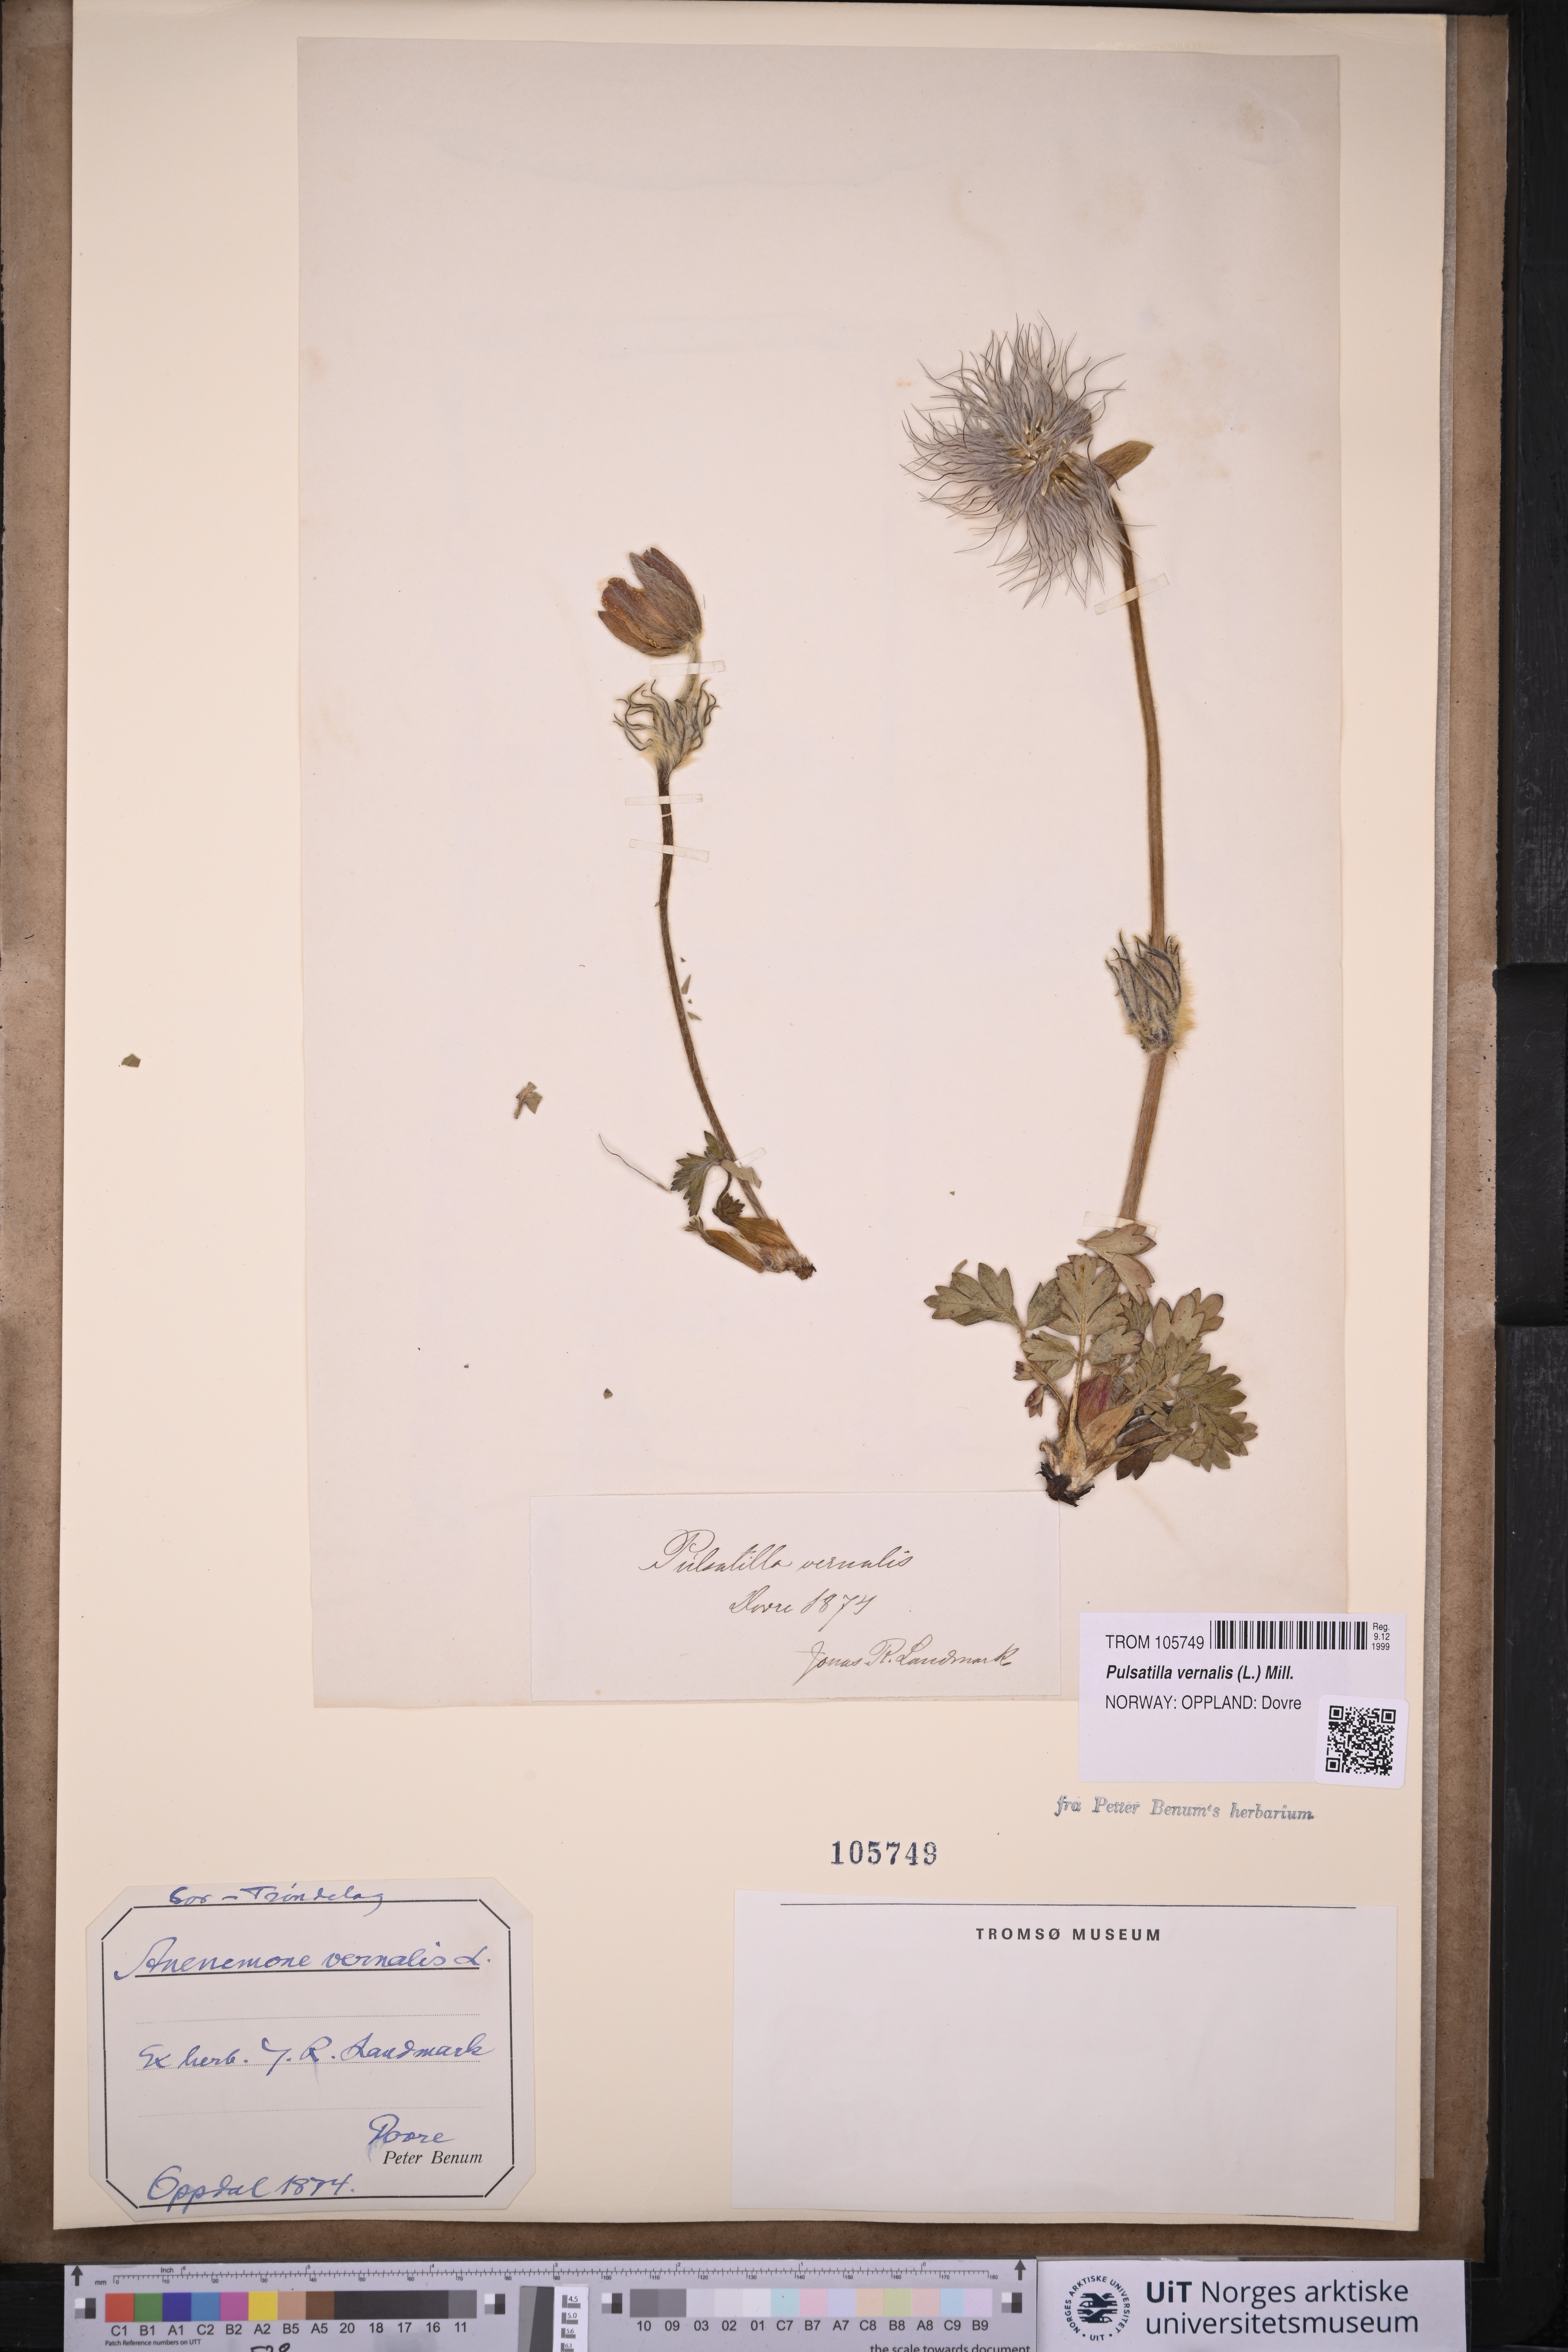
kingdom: Plantae
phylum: Tracheophyta
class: Magnoliopsida
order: Ranunculales
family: Ranunculaceae
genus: Pulsatilla
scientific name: Pulsatilla vernalis
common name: Spring pasque flower
